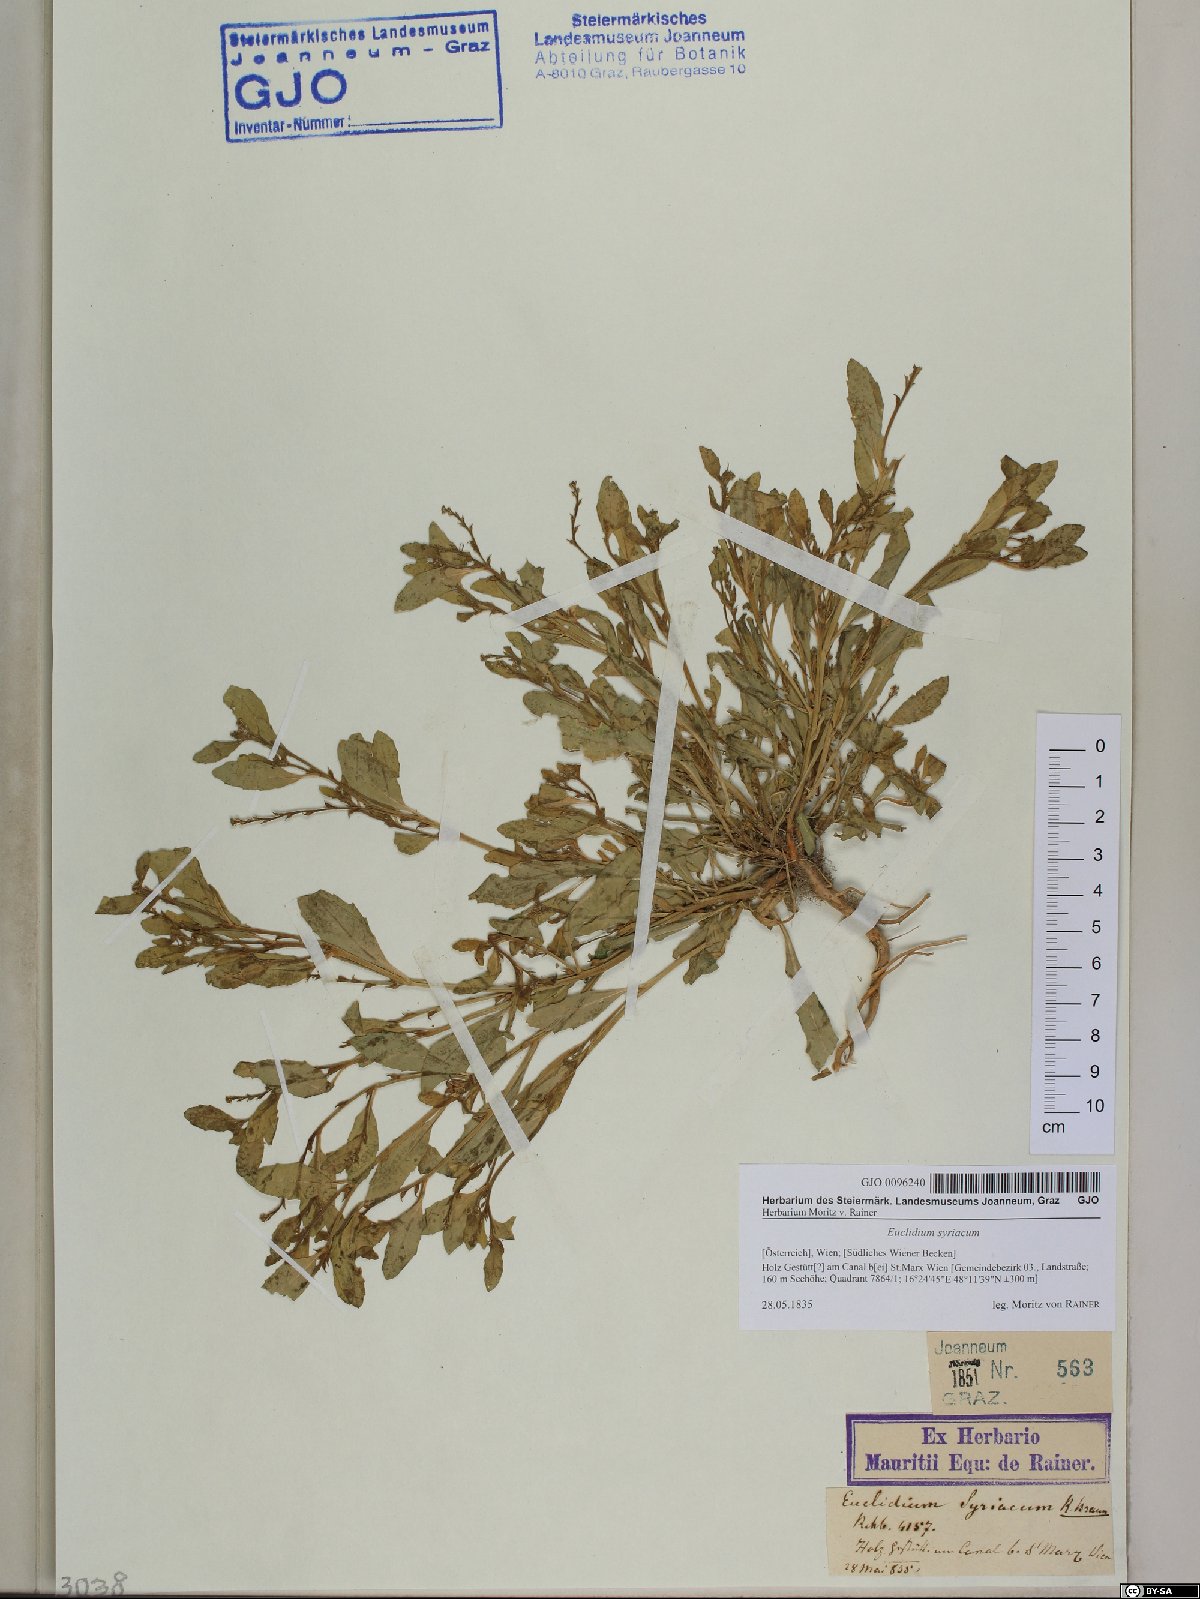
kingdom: Plantae
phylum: Tracheophyta
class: Magnoliopsida
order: Brassicales
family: Brassicaceae
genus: Euclidium
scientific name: Euclidium syriacum
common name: Syrian mustard
